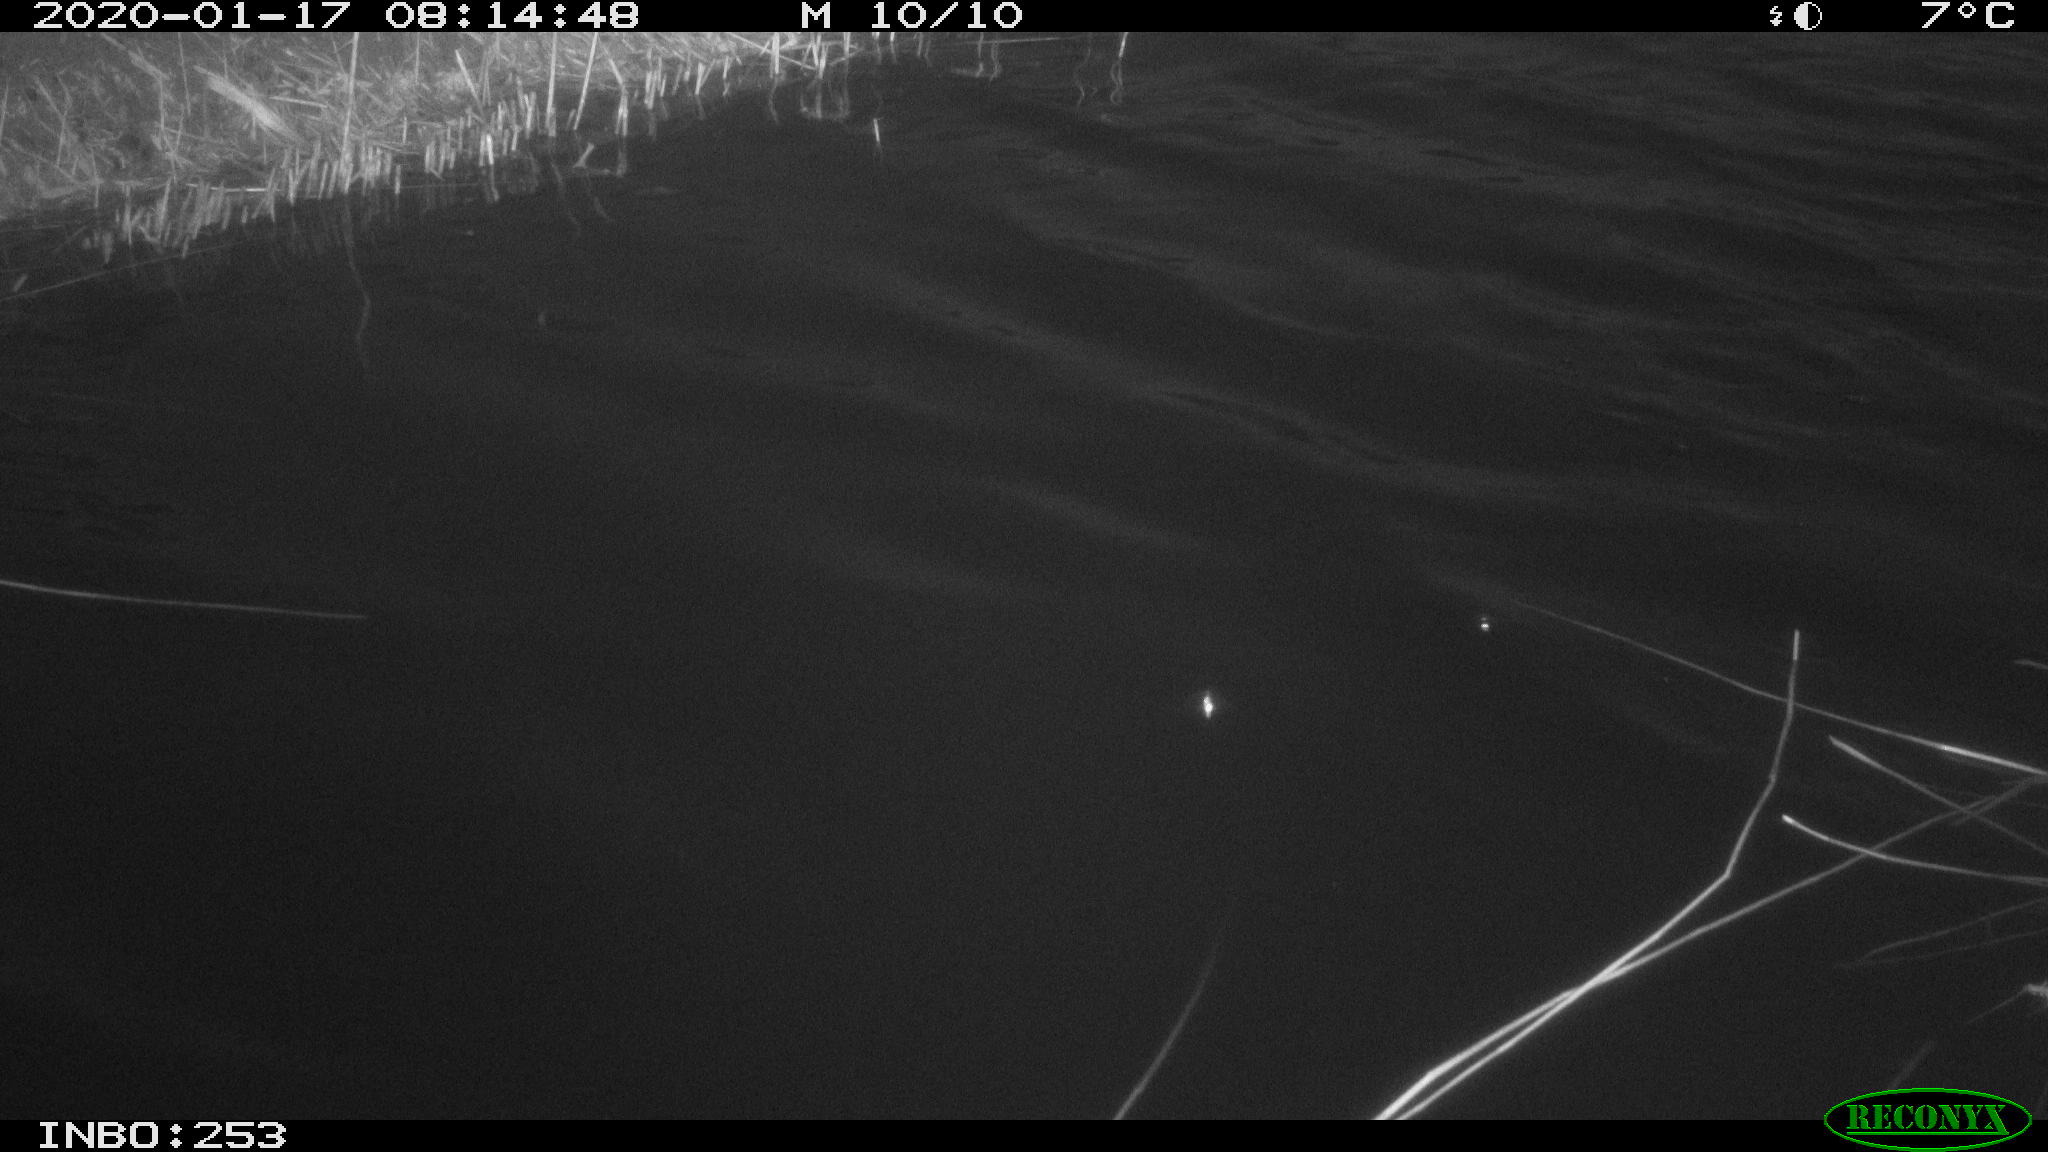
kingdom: Animalia
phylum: Chordata
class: Aves
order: Gruiformes
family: Rallidae
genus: Fulica
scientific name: Fulica atra
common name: Eurasian coot
